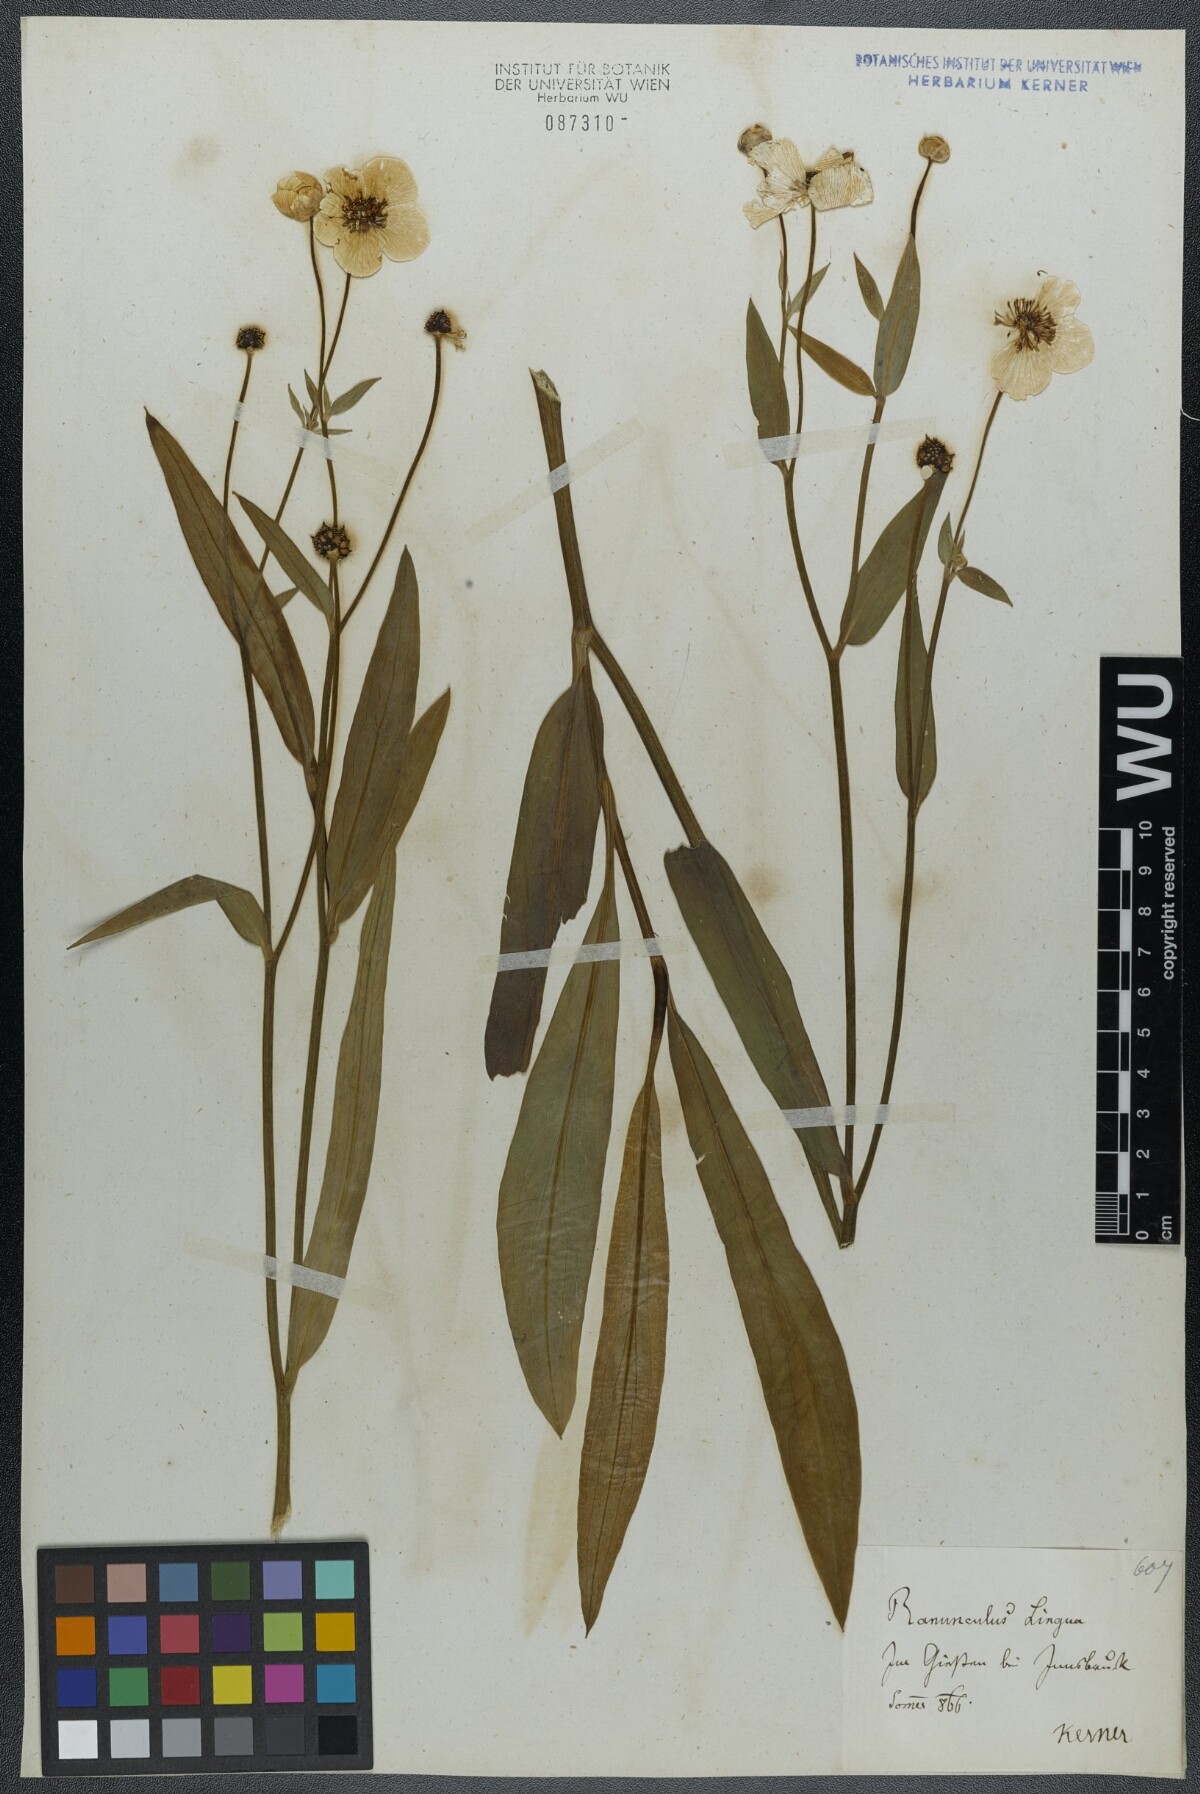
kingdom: Plantae
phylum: Tracheophyta
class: Magnoliopsida
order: Ranunculales
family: Ranunculaceae
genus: Ranunculus
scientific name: Ranunculus lingua
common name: Greater spearwort
